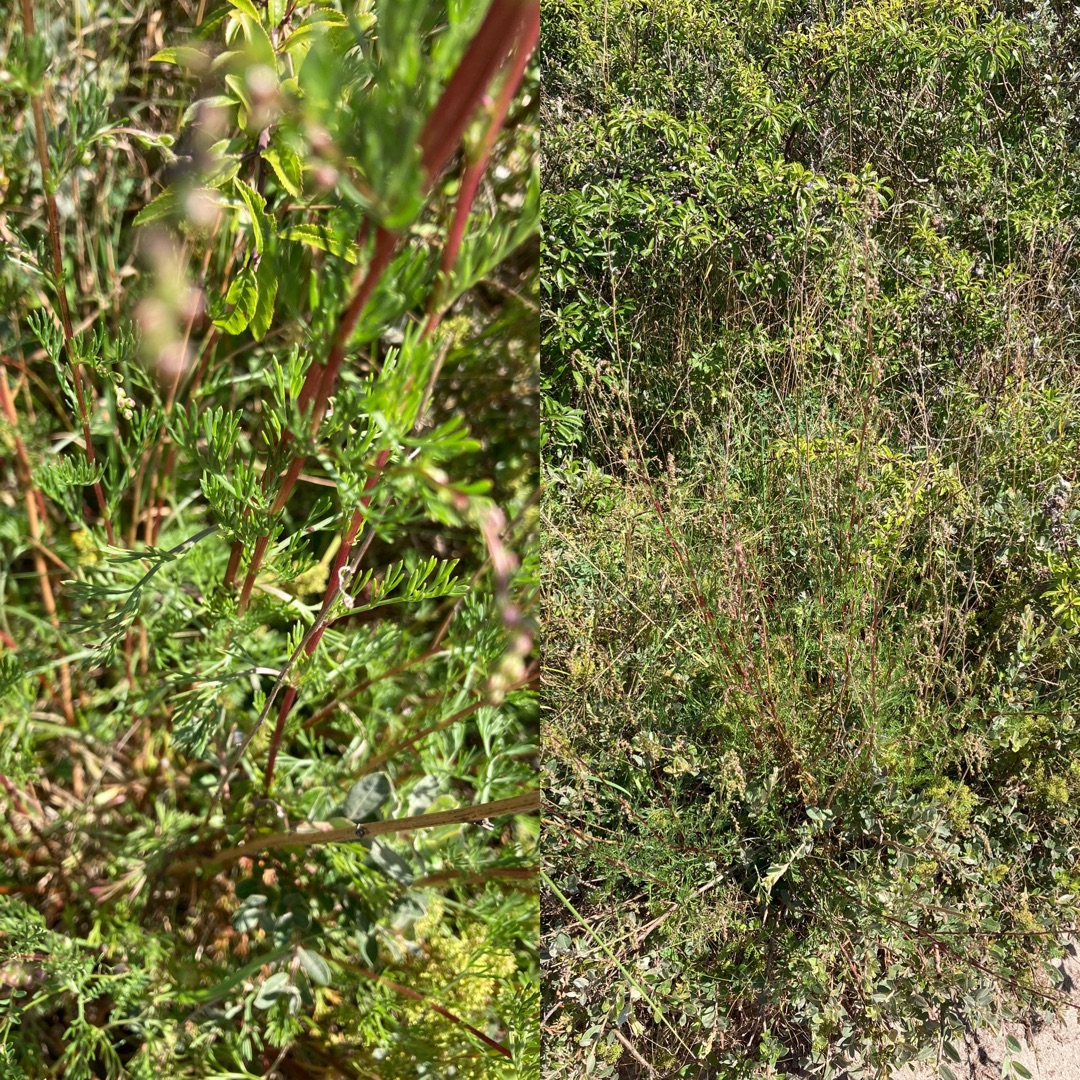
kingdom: Plantae
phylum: Tracheophyta
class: Magnoliopsida
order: Asterales
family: Asteraceae
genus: Artemisia
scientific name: Artemisia campestris
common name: Mark-bynke
